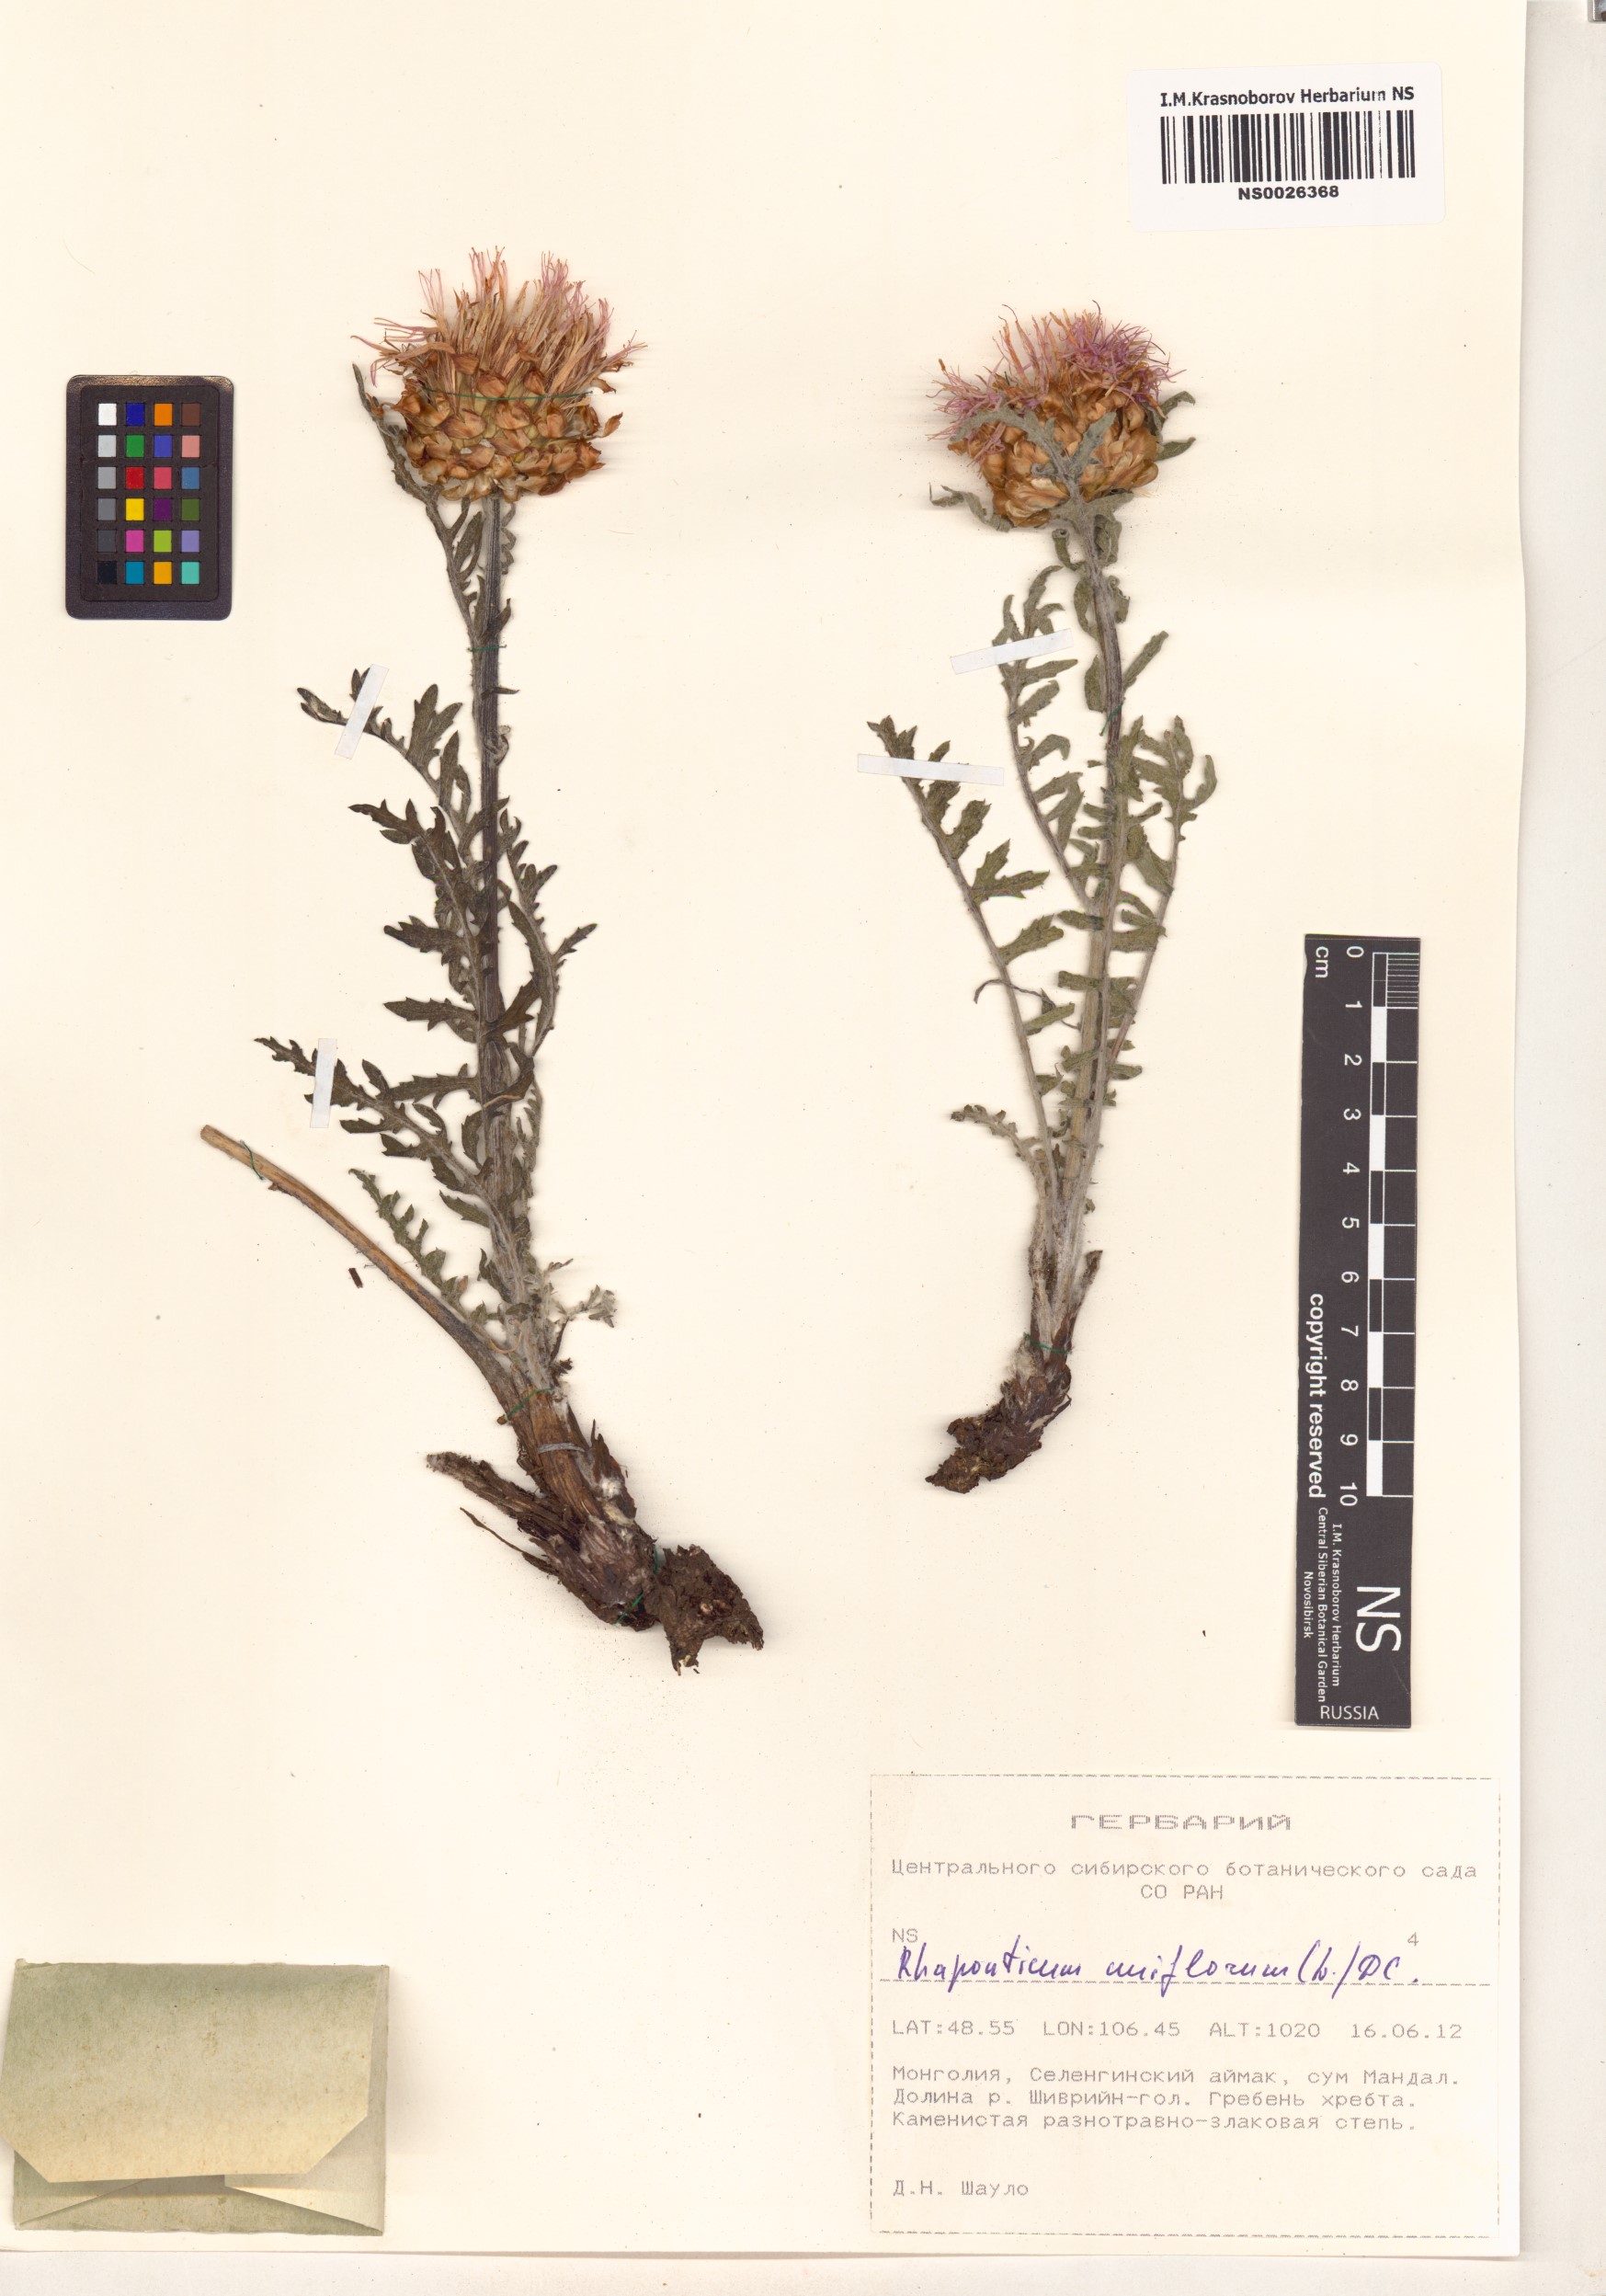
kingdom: Plantae
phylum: Tracheophyta
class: Magnoliopsida
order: Asterales
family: Asteraceae
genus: Leuzea
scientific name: Leuzea uniflora
